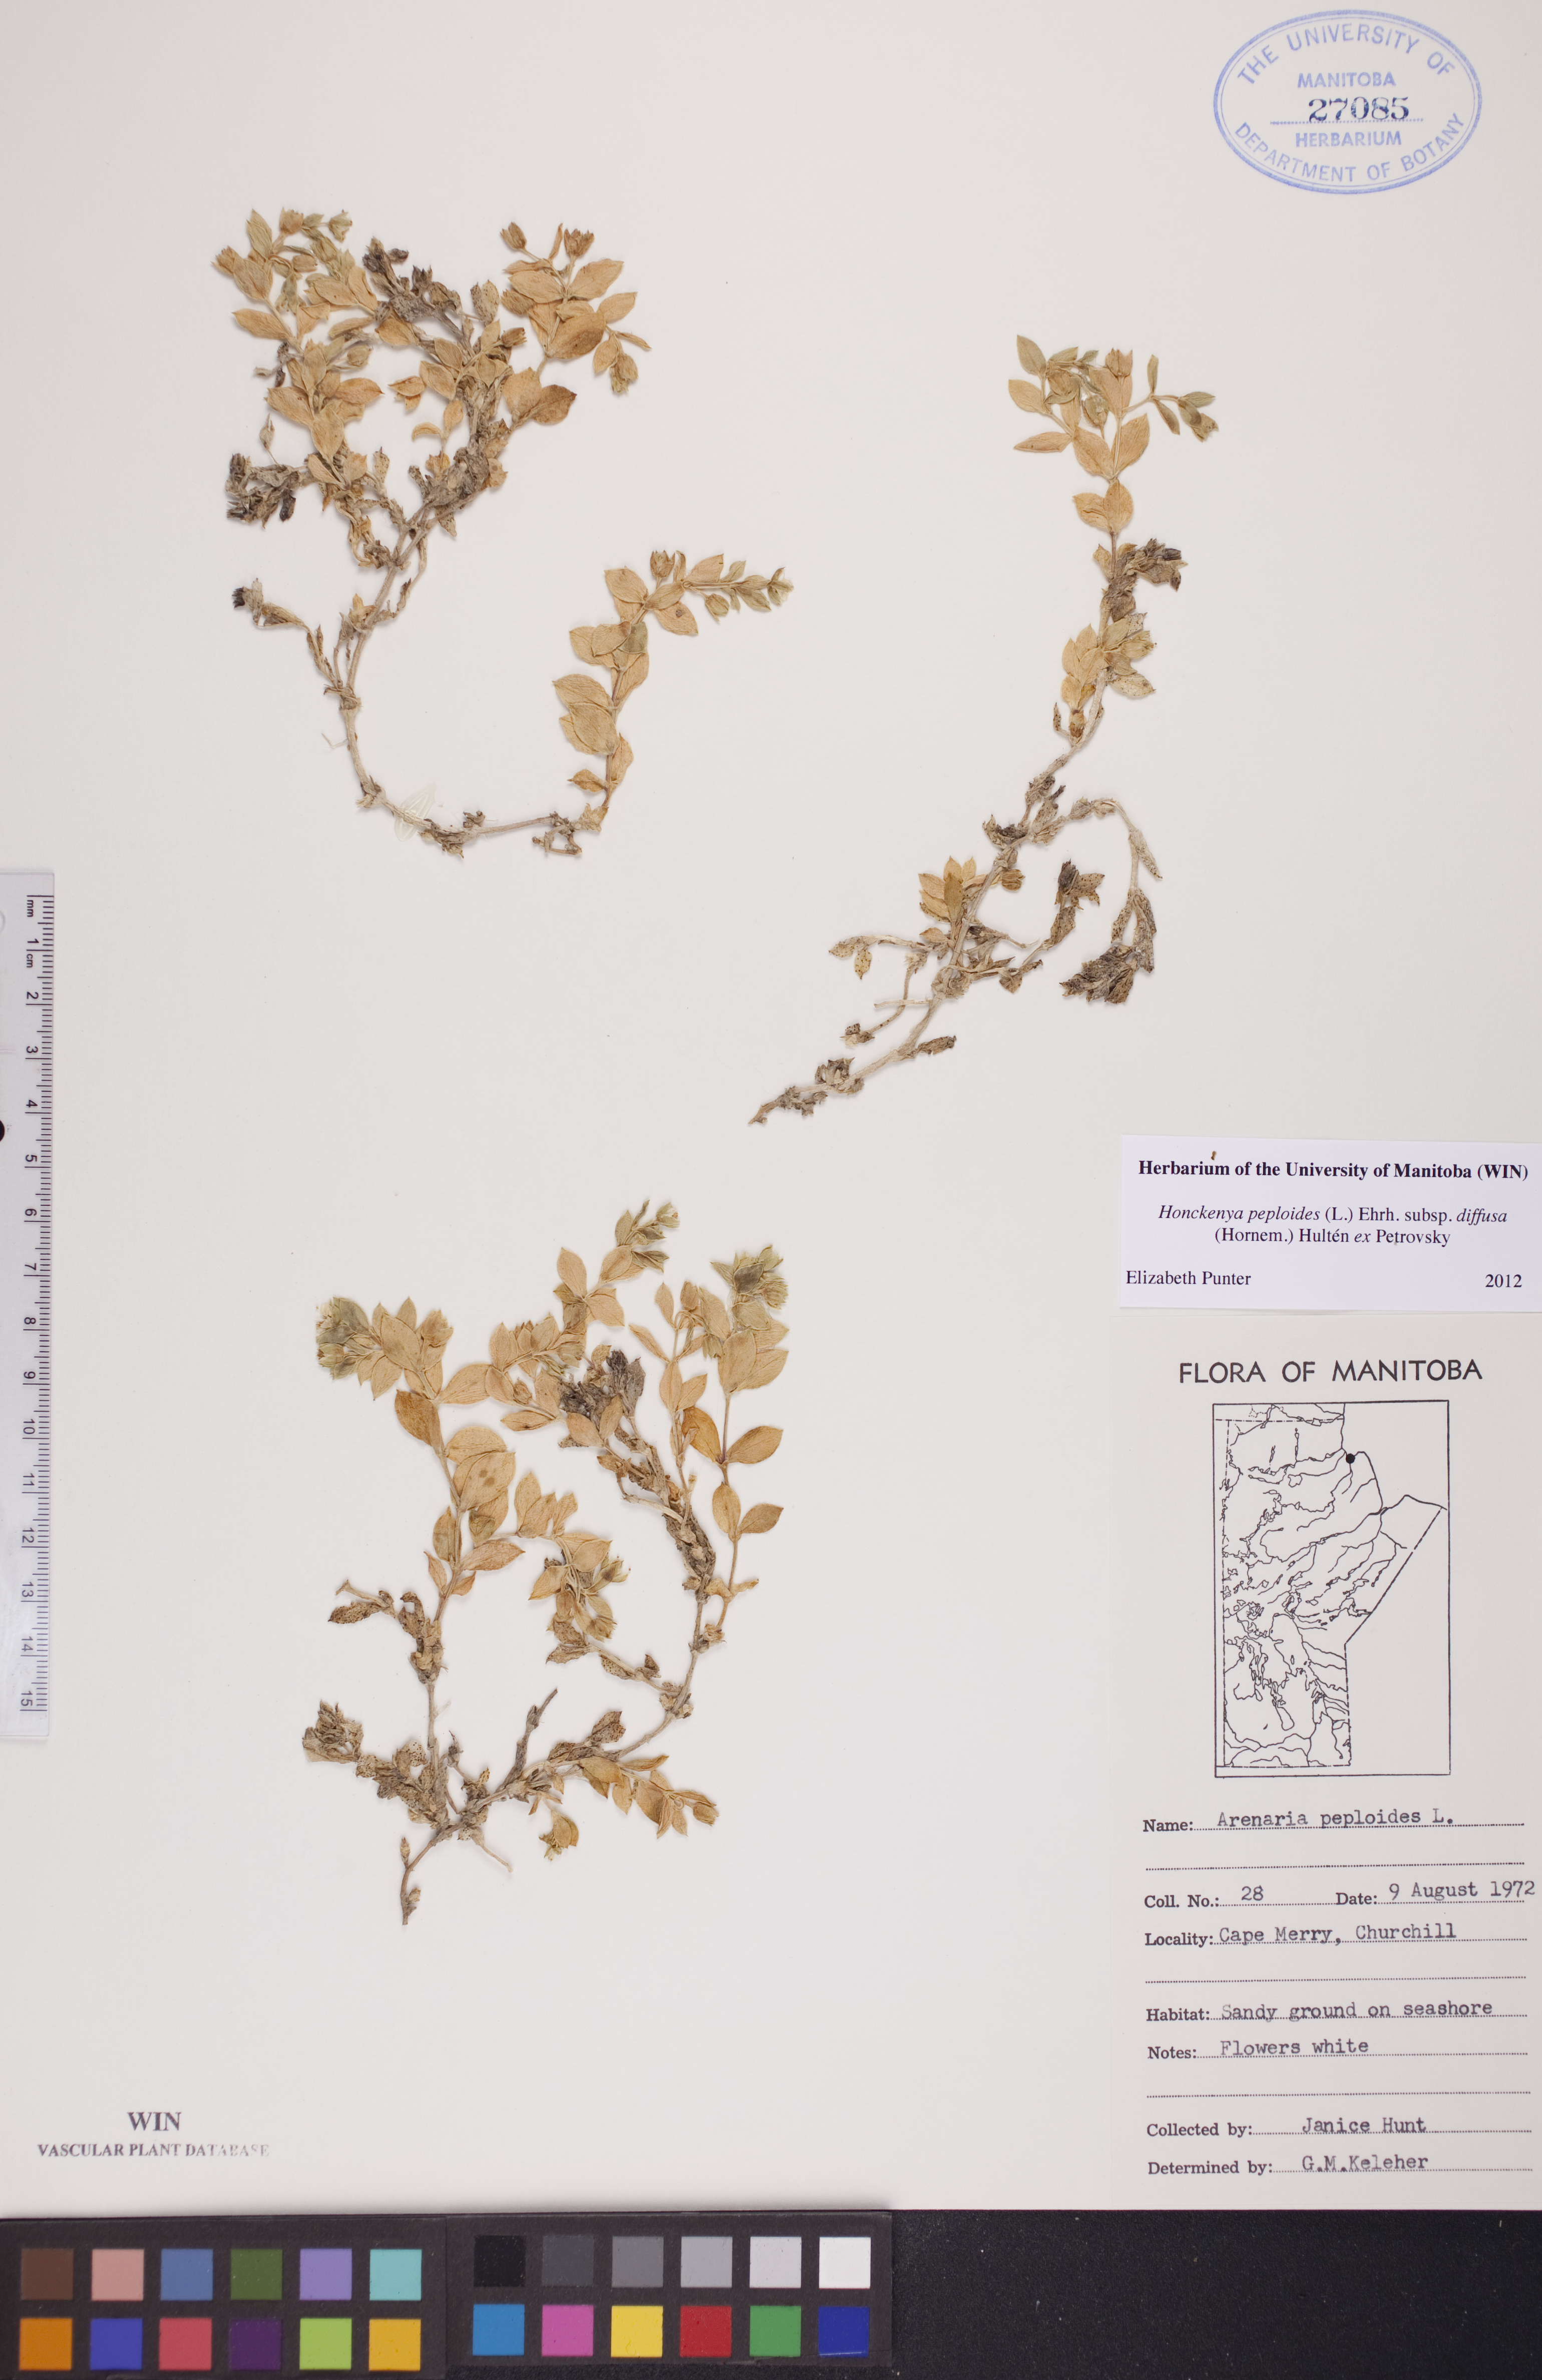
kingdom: Plantae
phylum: Tracheophyta
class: Magnoliopsida
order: Caryophyllales
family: Caryophyllaceae
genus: Honckenya
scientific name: Honckenya peploides
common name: Sea sandwort
